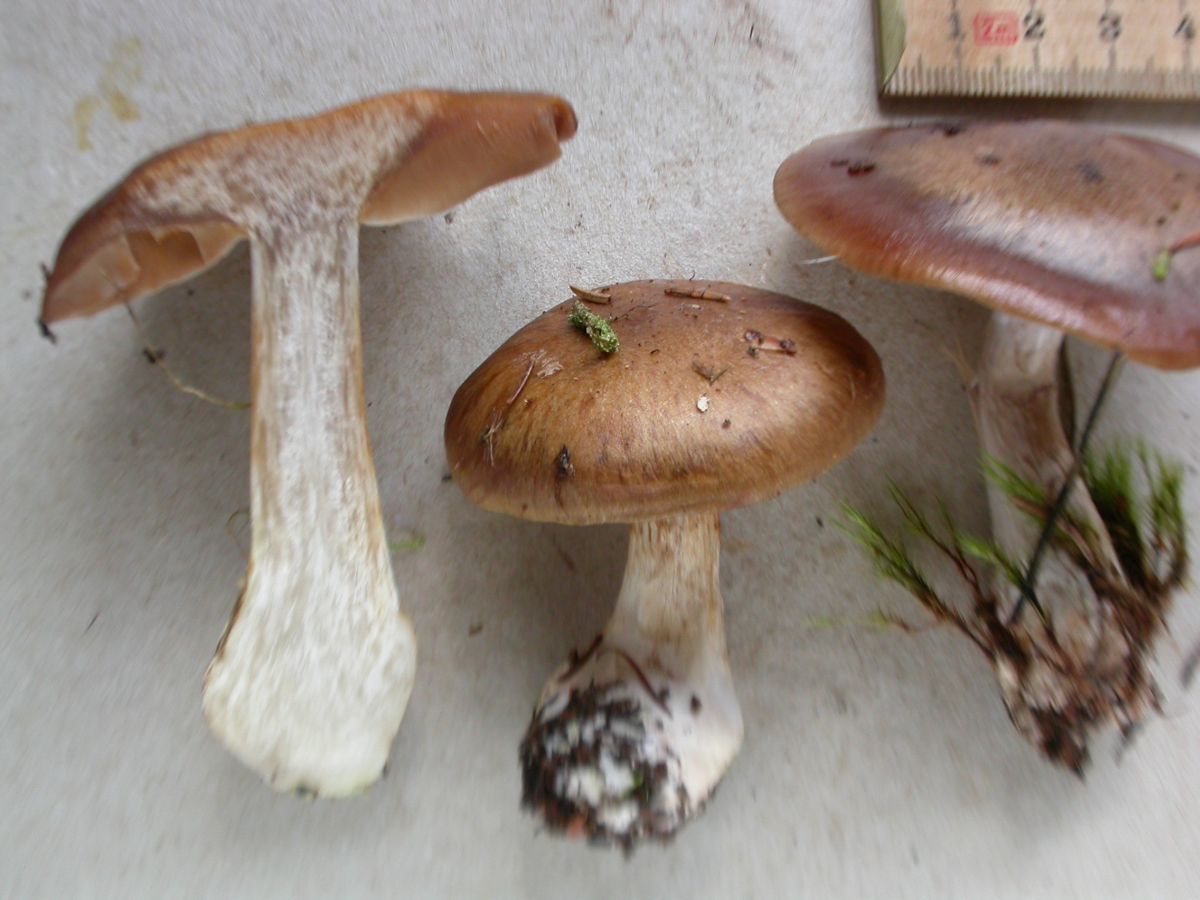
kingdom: Fungi
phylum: Basidiomycota
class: Agaricomycetes
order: Agaricales
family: Cortinariaceae
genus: Thaxterogaster
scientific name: Thaxterogaster sphagnophilus
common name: vandplettet slørhat
